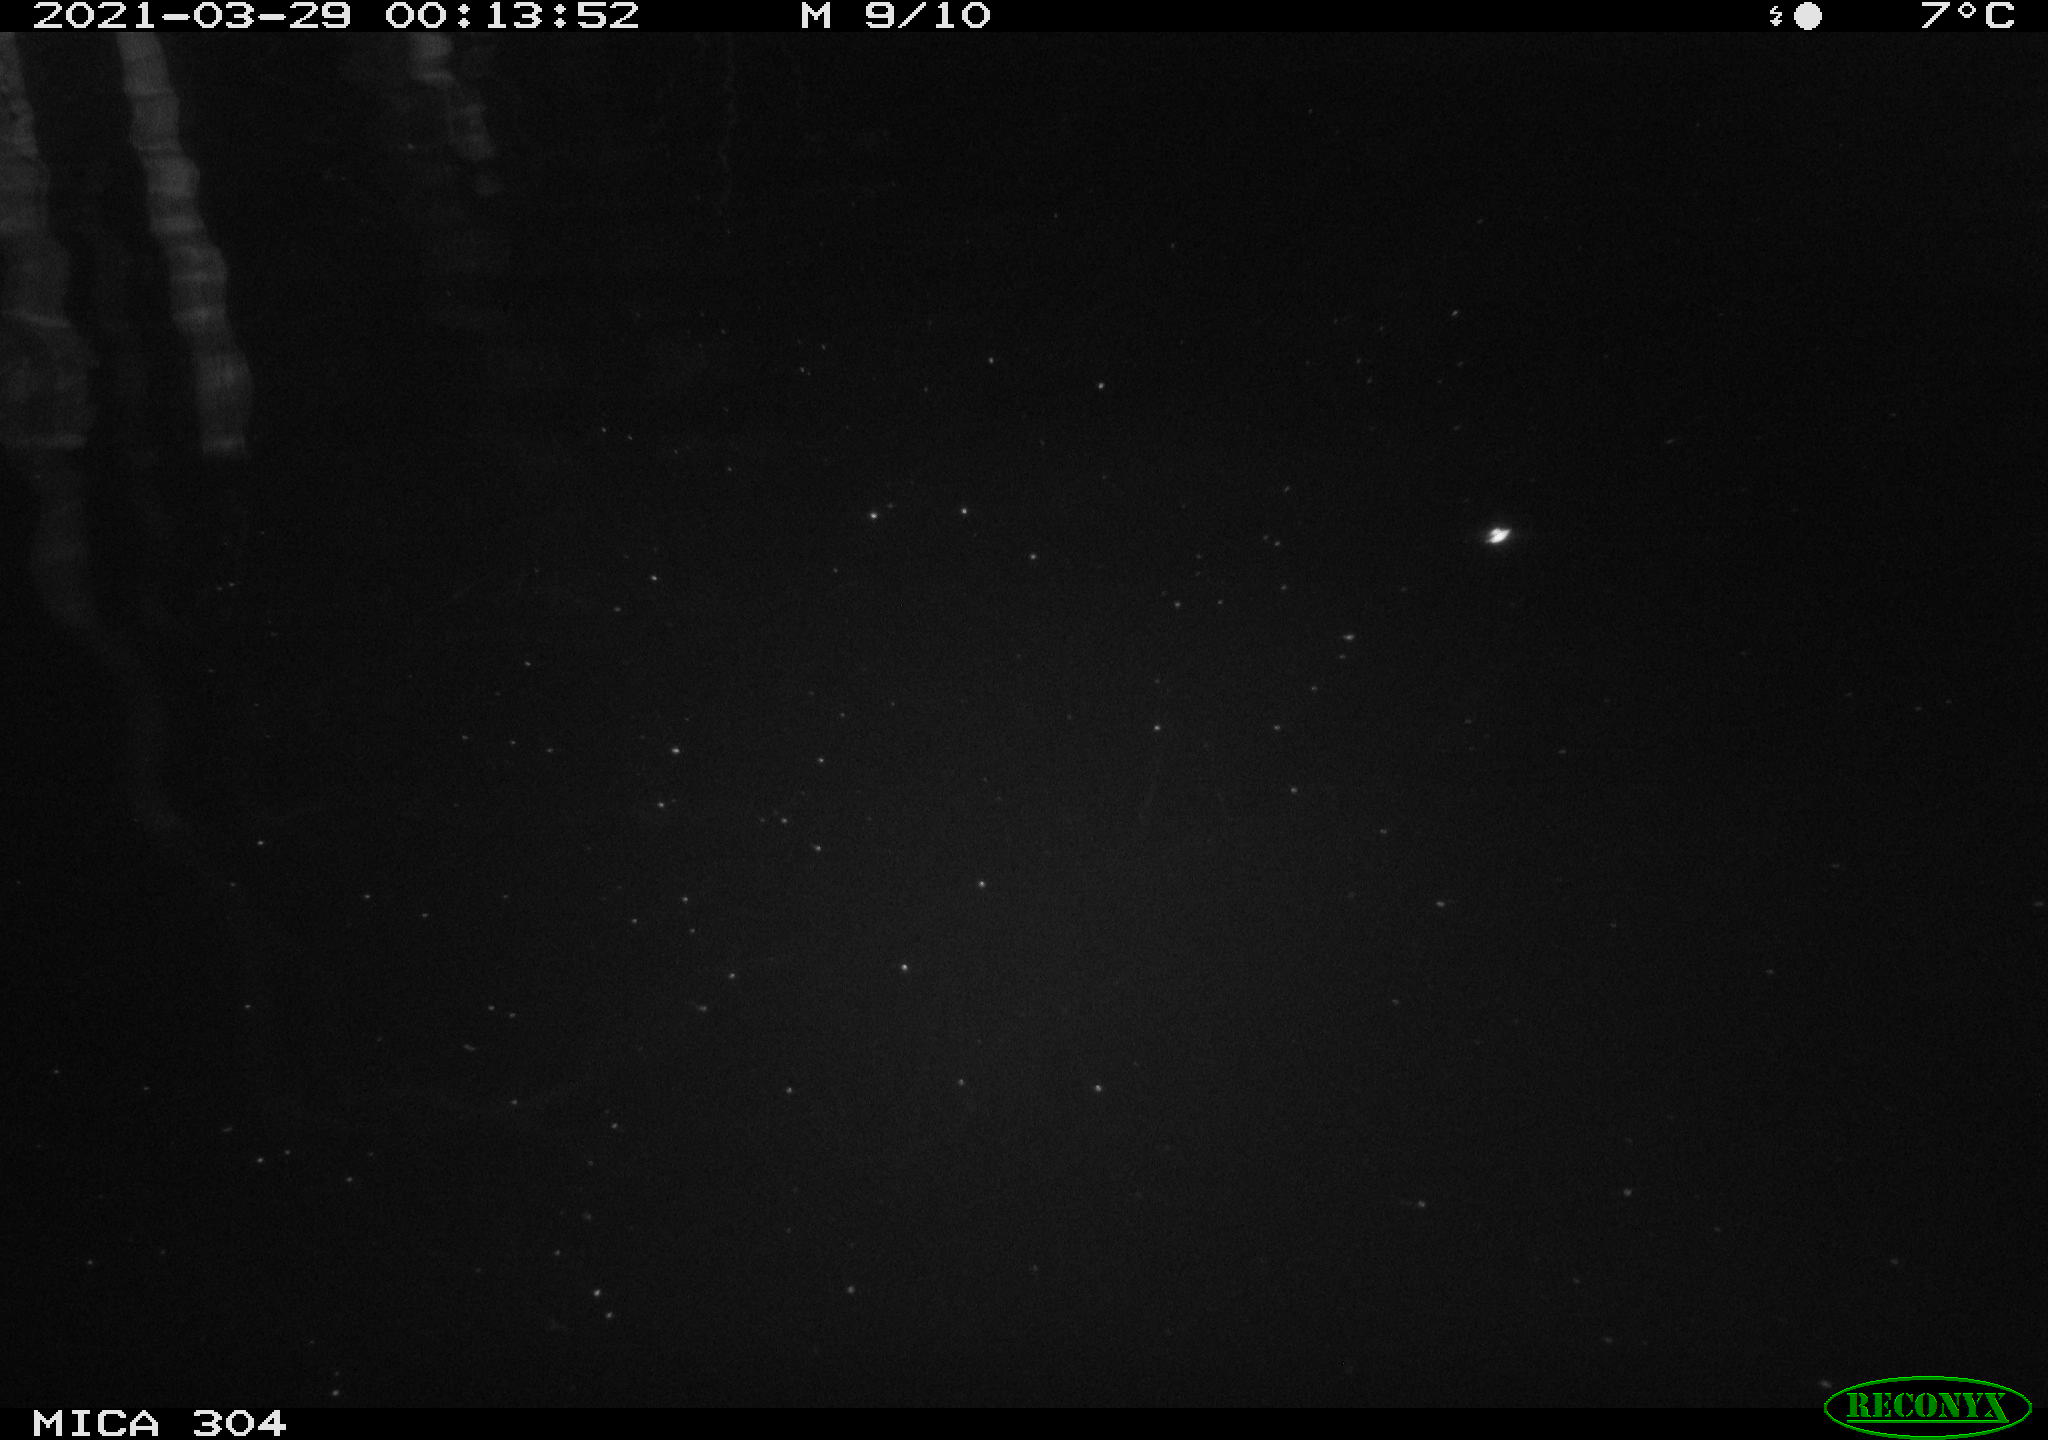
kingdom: Animalia
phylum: Chordata
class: Aves
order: Anseriformes
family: Anatidae
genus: Anas
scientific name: Anas platyrhynchos
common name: Mallard
